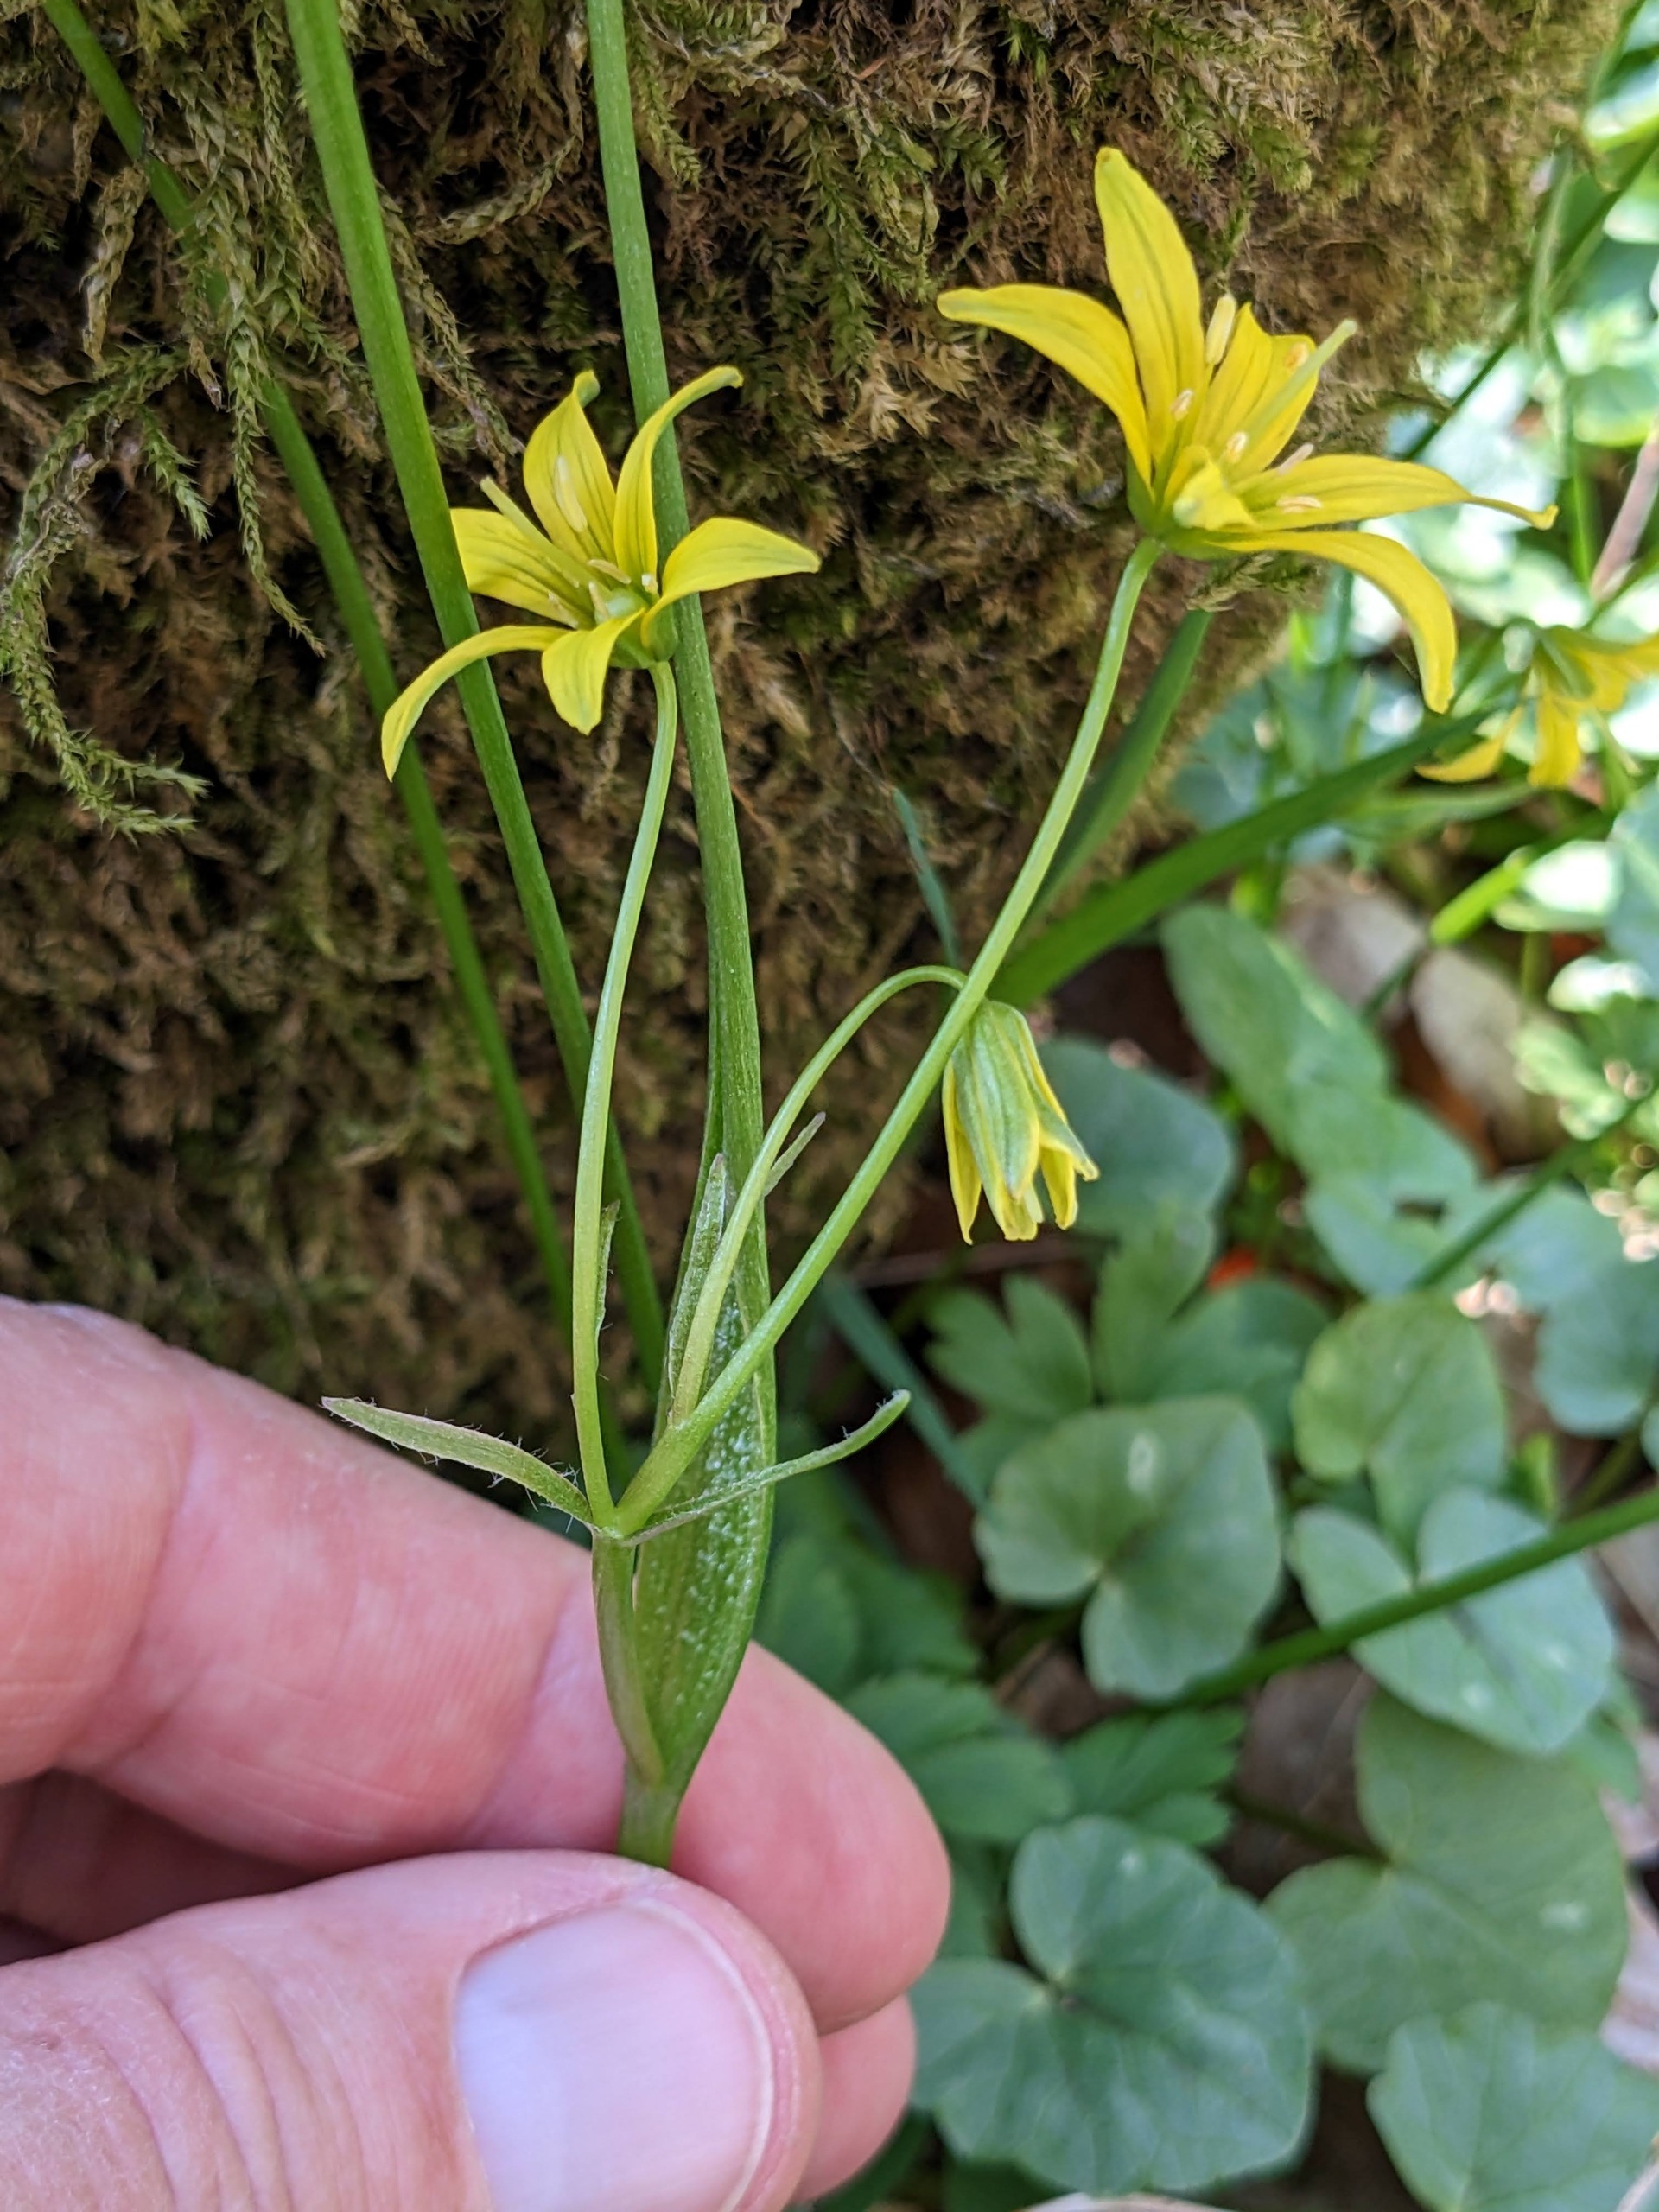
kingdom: Plantae
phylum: Tracheophyta
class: Liliopsida
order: Liliales
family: Liliaceae
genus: Gagea
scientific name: Gagea spathacea
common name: Hylster-guldstjerne
